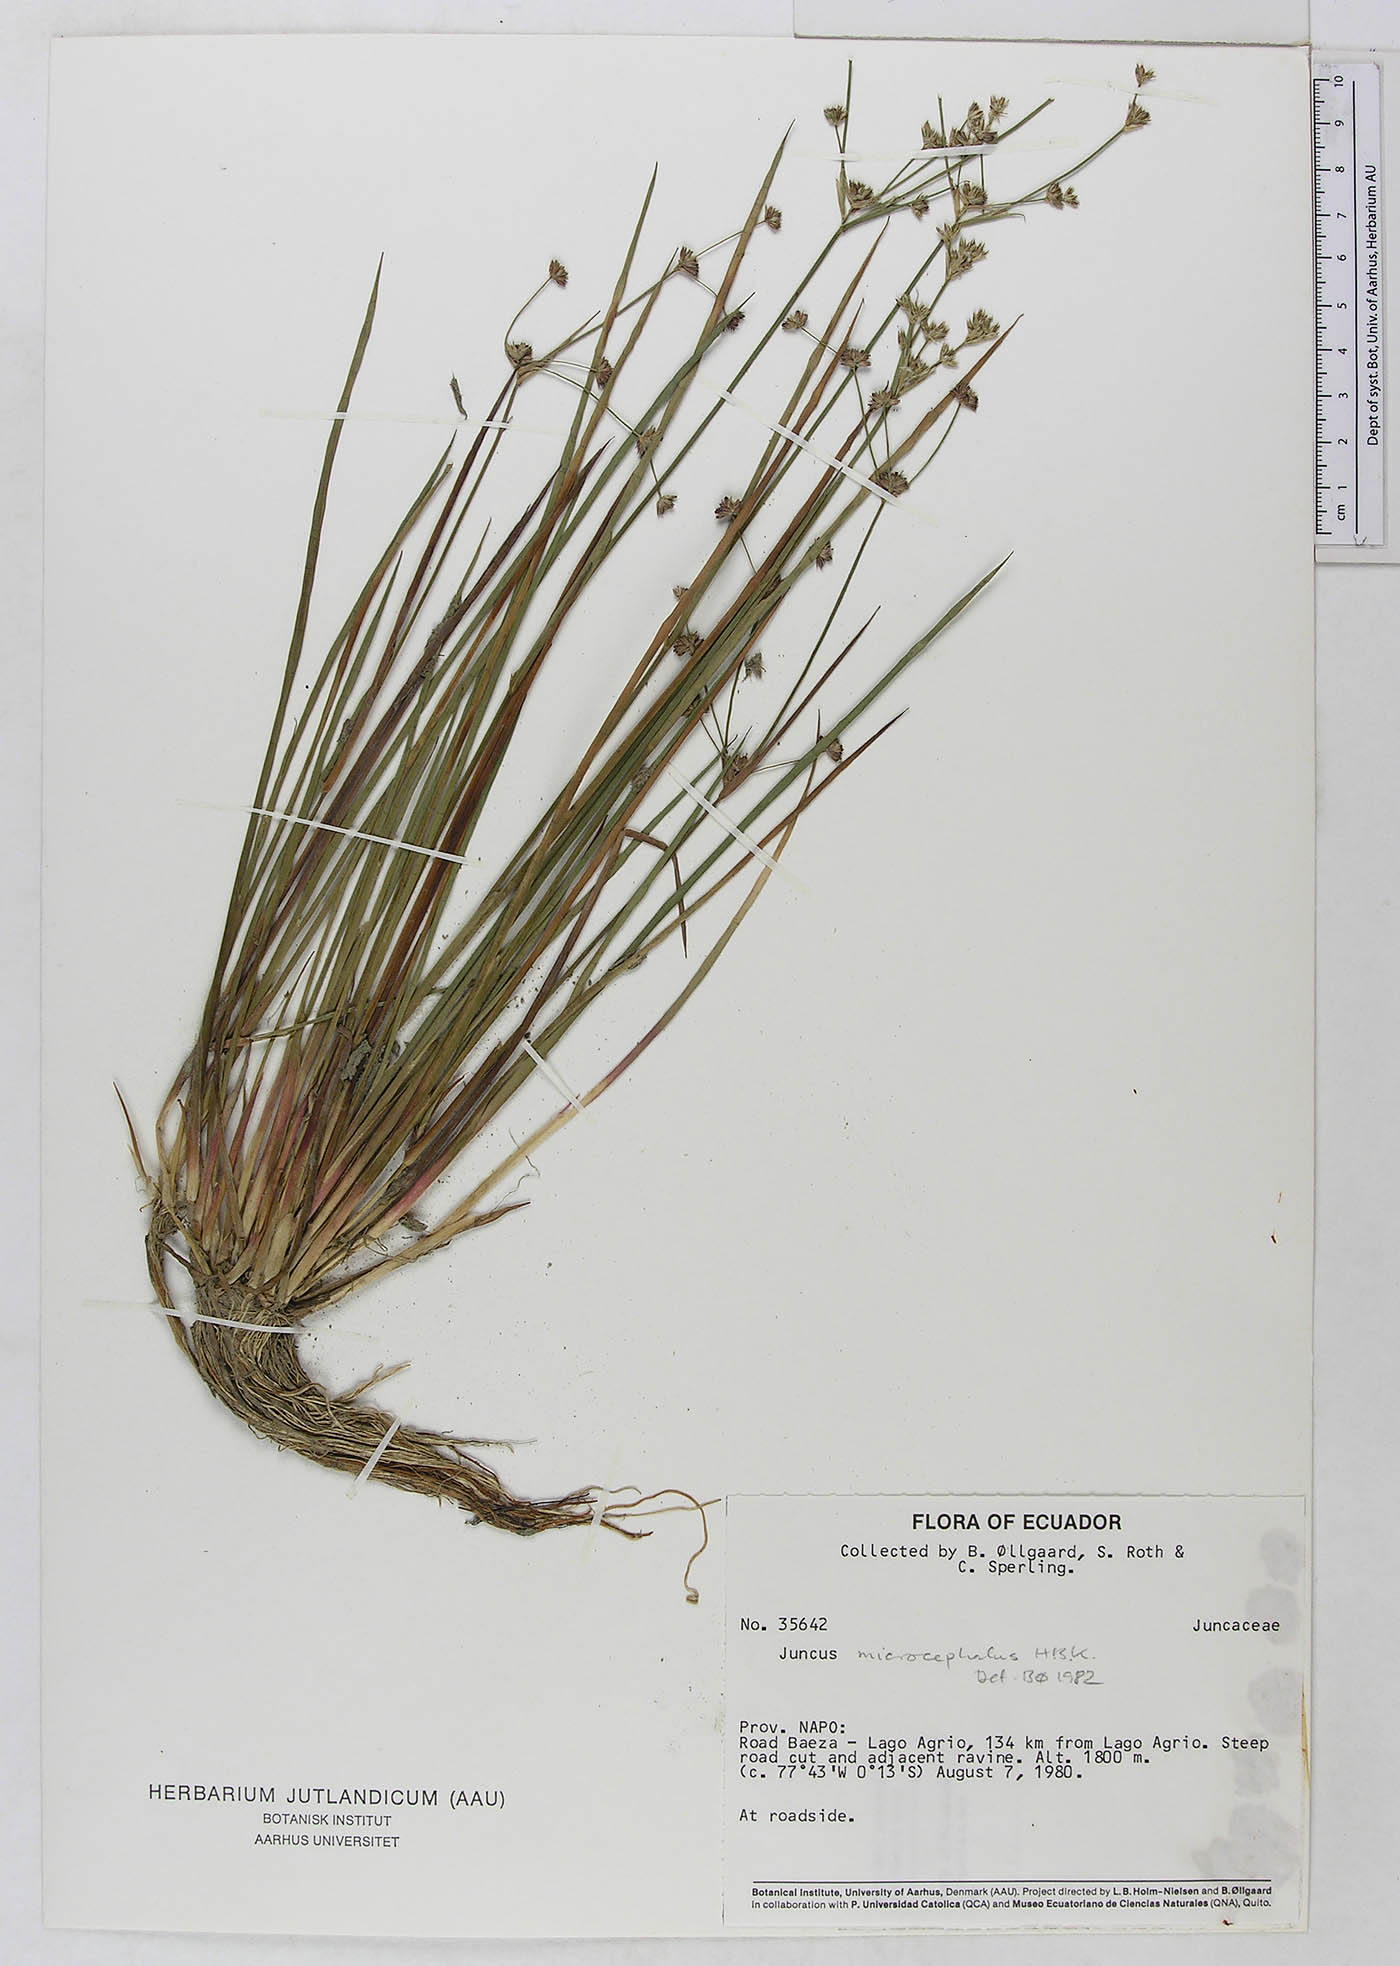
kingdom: Plantae
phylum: Tracheophyta
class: Liliopsida
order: Poales
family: Juncaceae
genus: Juncus
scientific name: Juncus microcephalus
